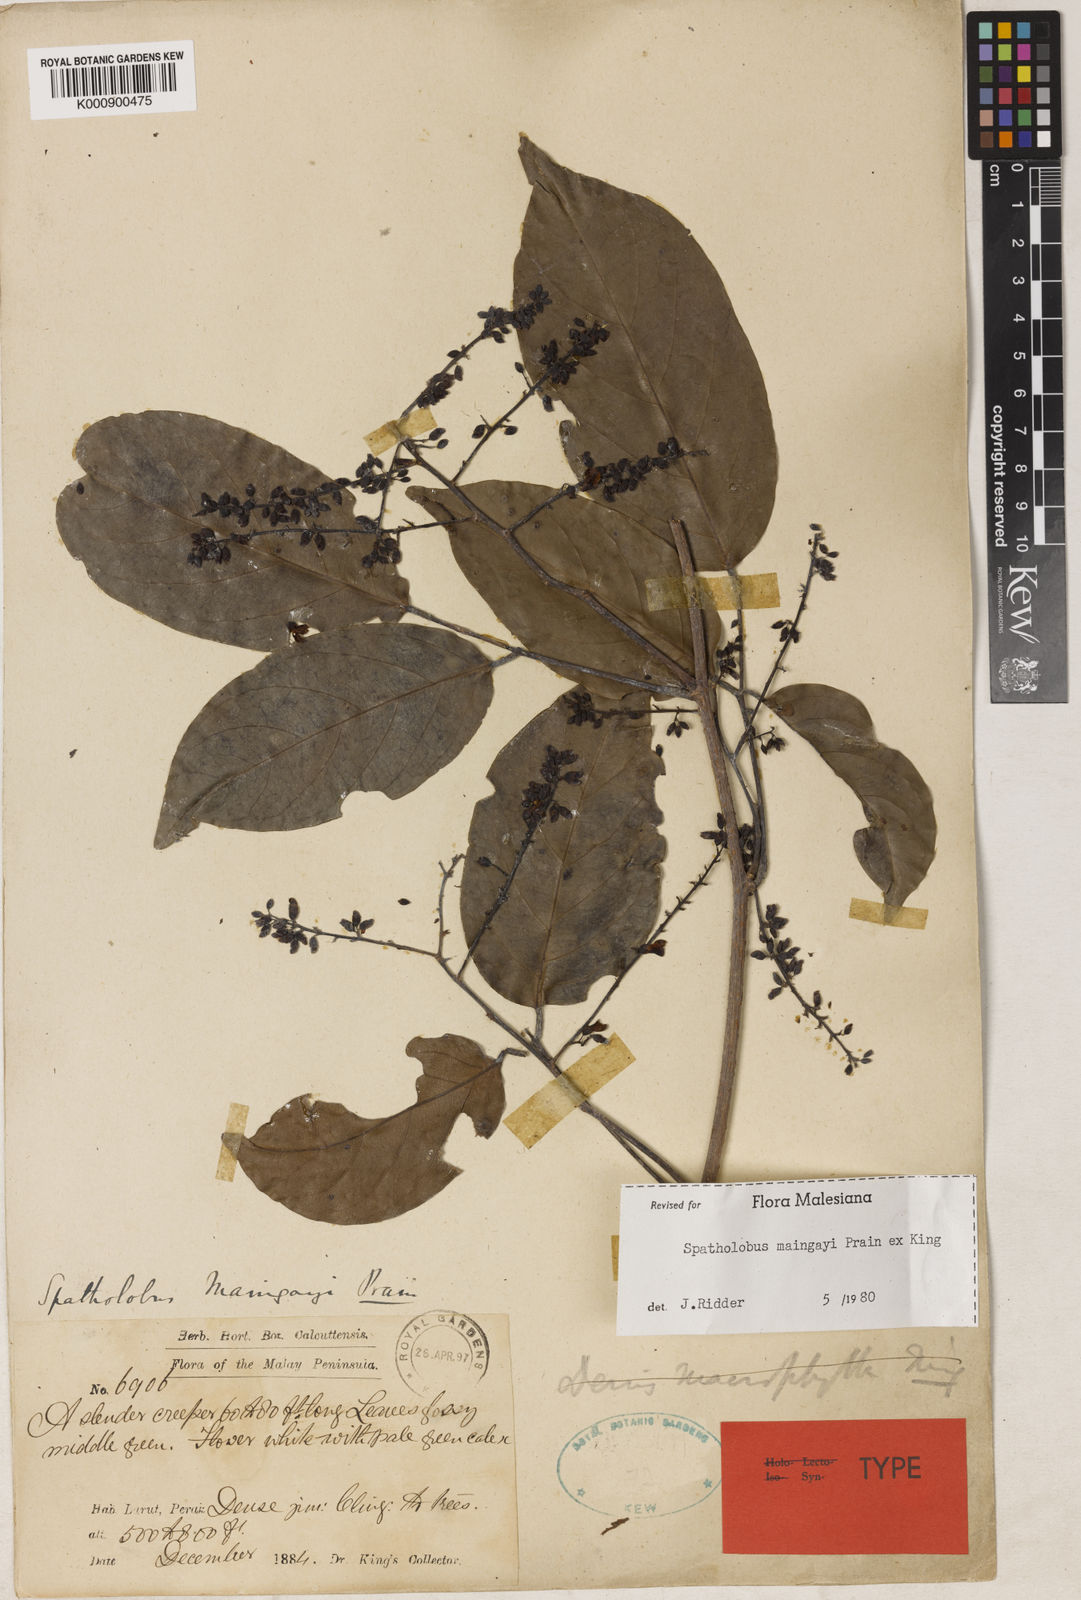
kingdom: Plantae
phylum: Tracheophyta
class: Magnoliopsida
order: Fabales
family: Fabaceae
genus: Spatholobus
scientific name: Spatholobus
